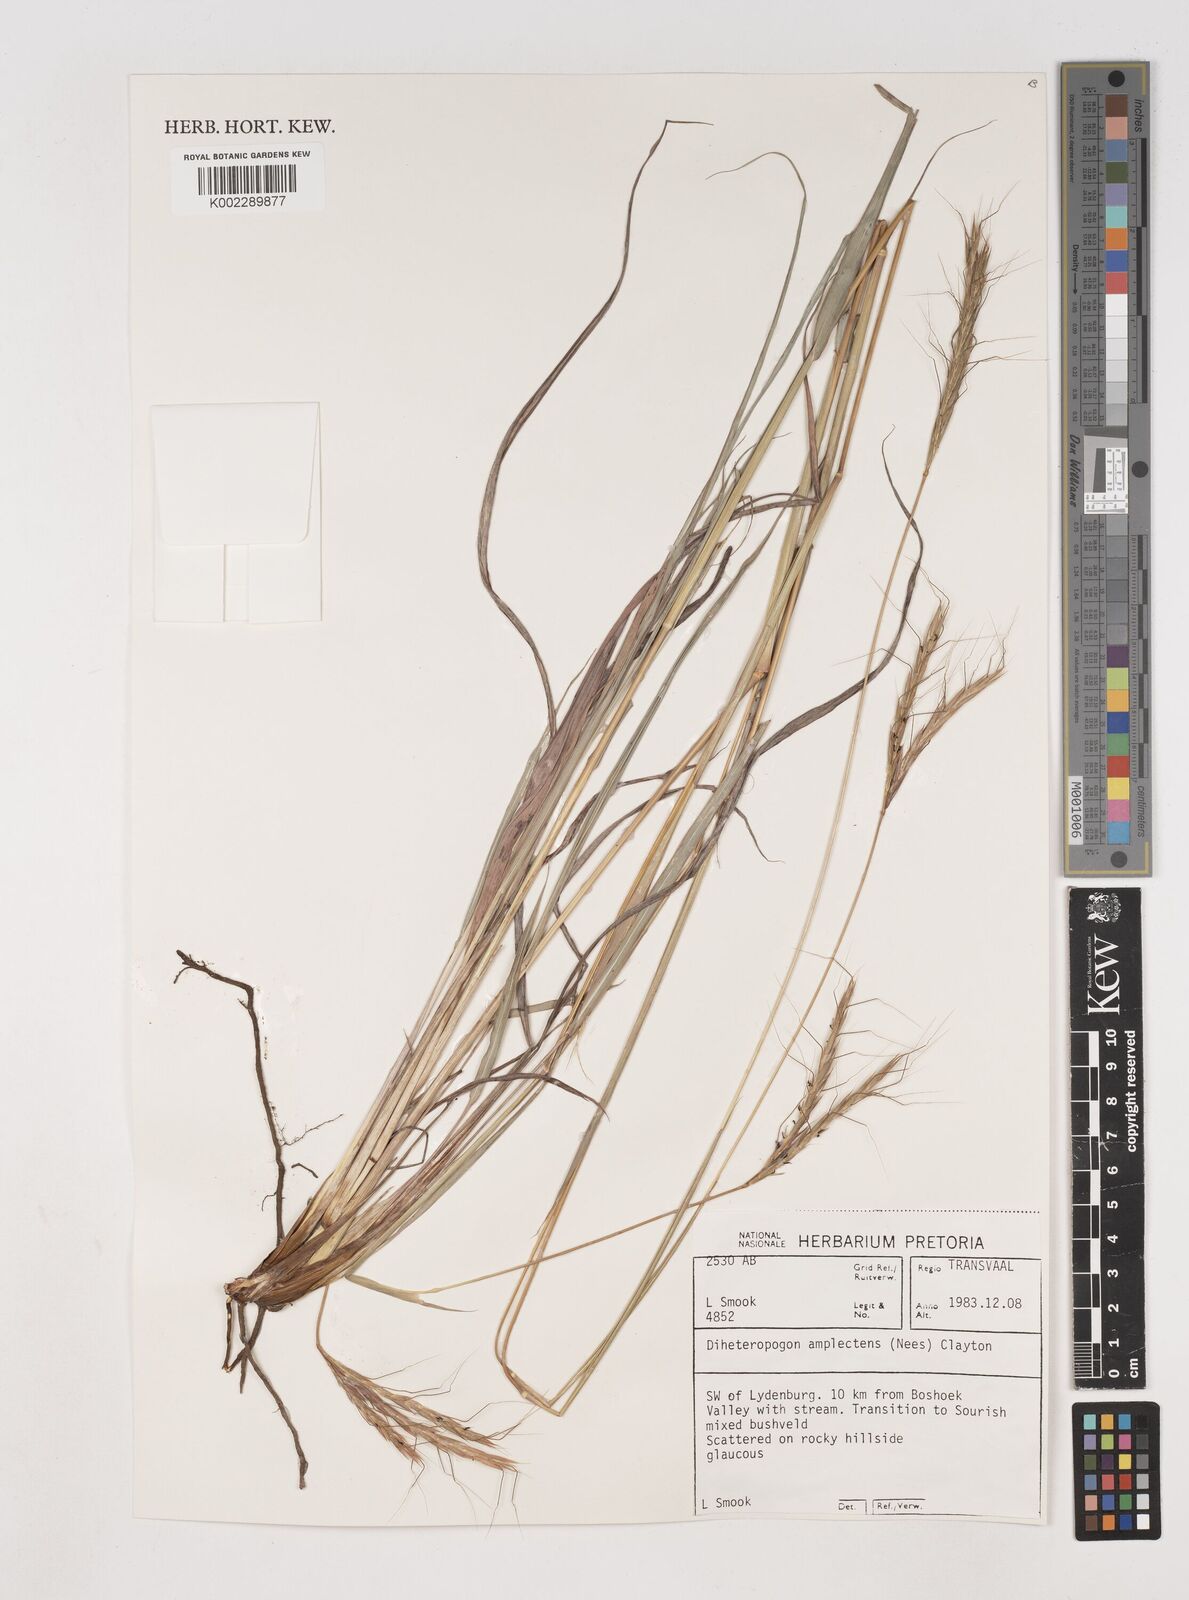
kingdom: Plantae
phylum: Tracheophyta
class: Liliopsida
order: Poales
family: Poaceae
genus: Diheteropogon
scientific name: Diheteropogon amplectens
